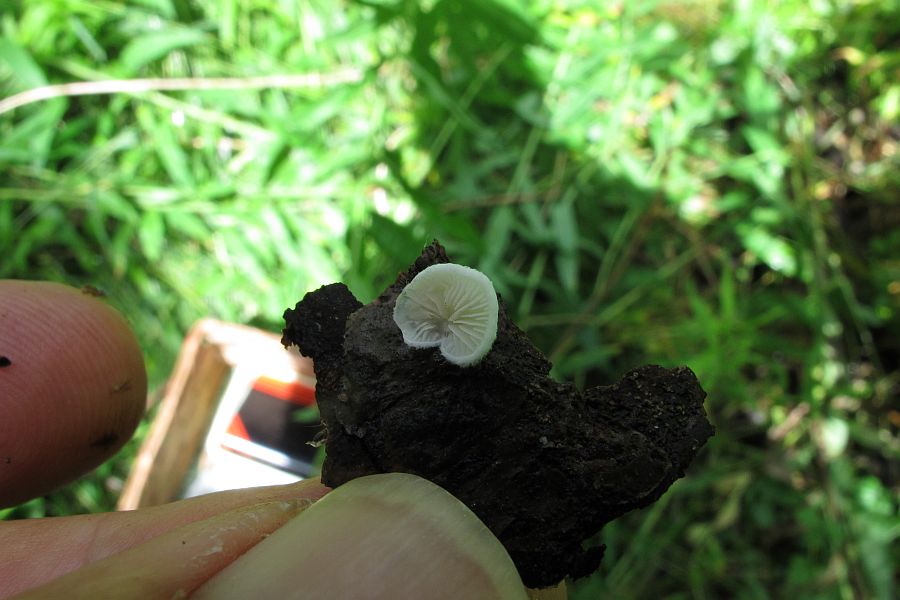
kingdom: Fungi
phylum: Basidiomycota
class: Agaricomycetes
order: Agaricales
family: Crepidotaceae
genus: Crepidotus
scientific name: Crepidotus variabilis
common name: forskelligformet muslingesvamp
